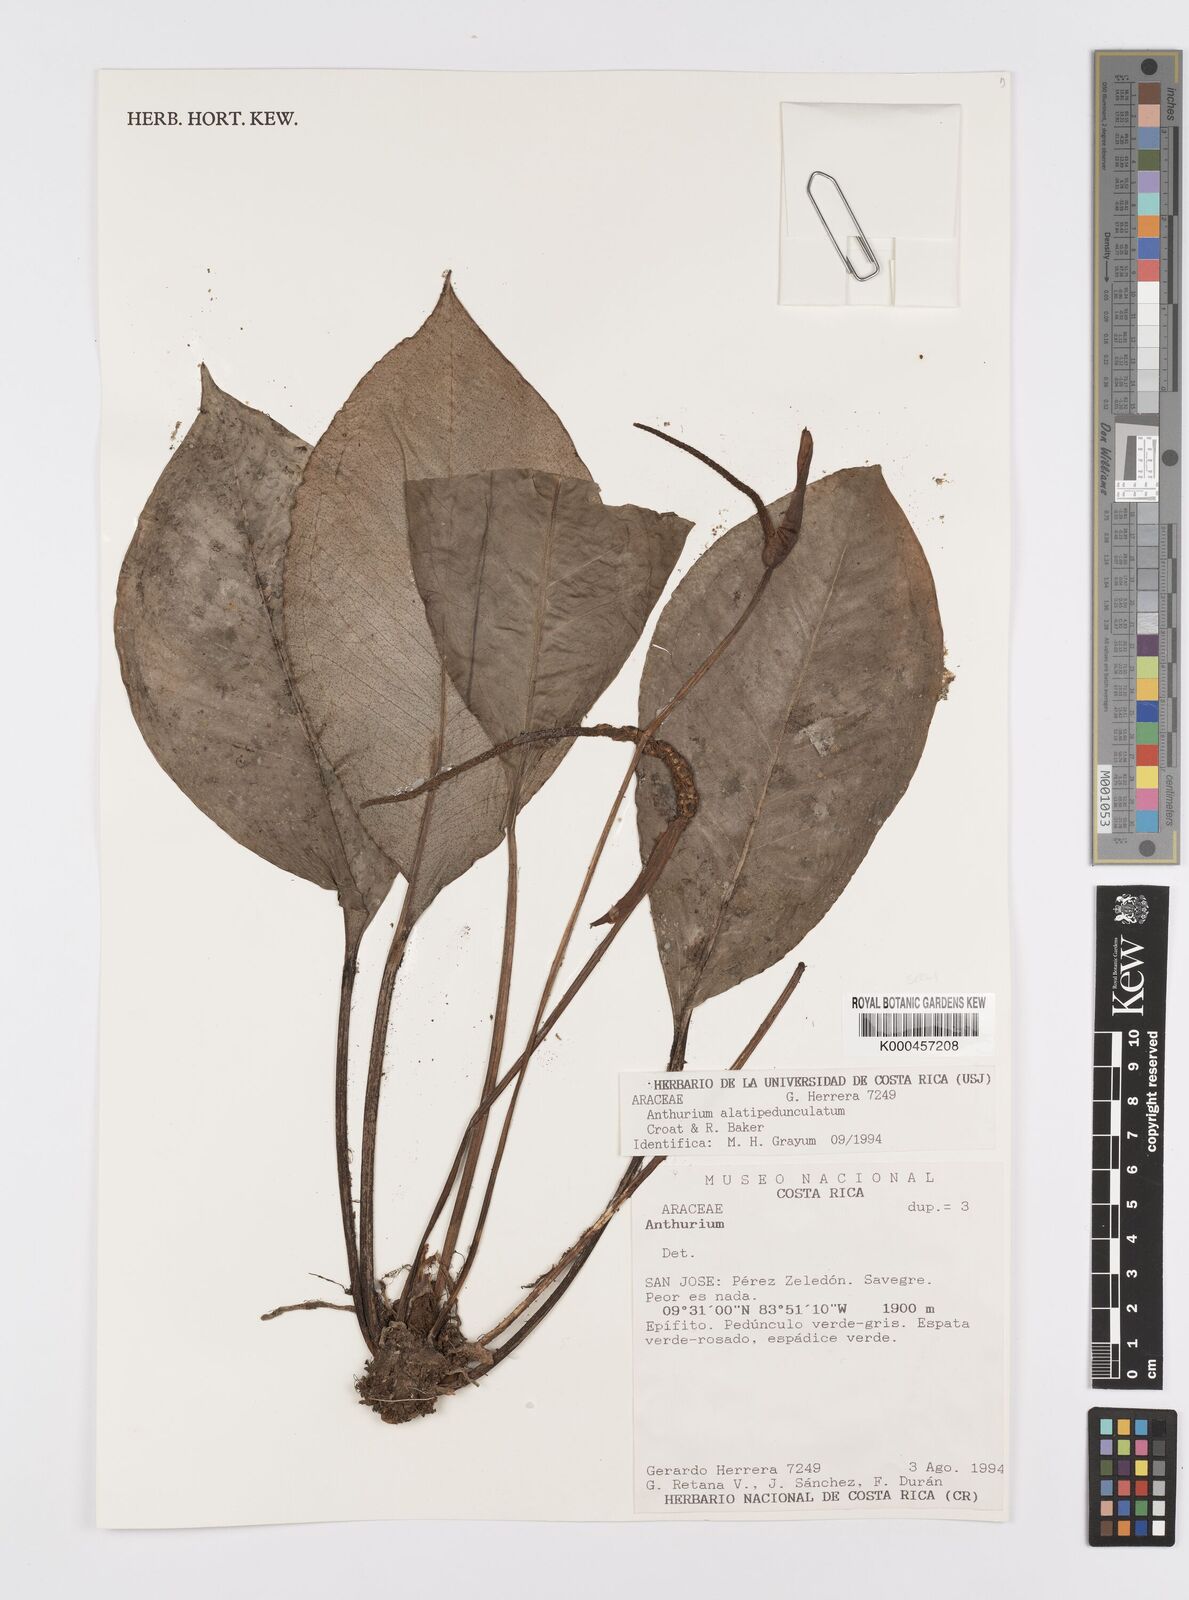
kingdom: Plantae
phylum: Tracheophyta
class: Liliopsida
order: Alismatales
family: Araceae
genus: Anthurium
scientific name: Anthurium alatipedunculatum
